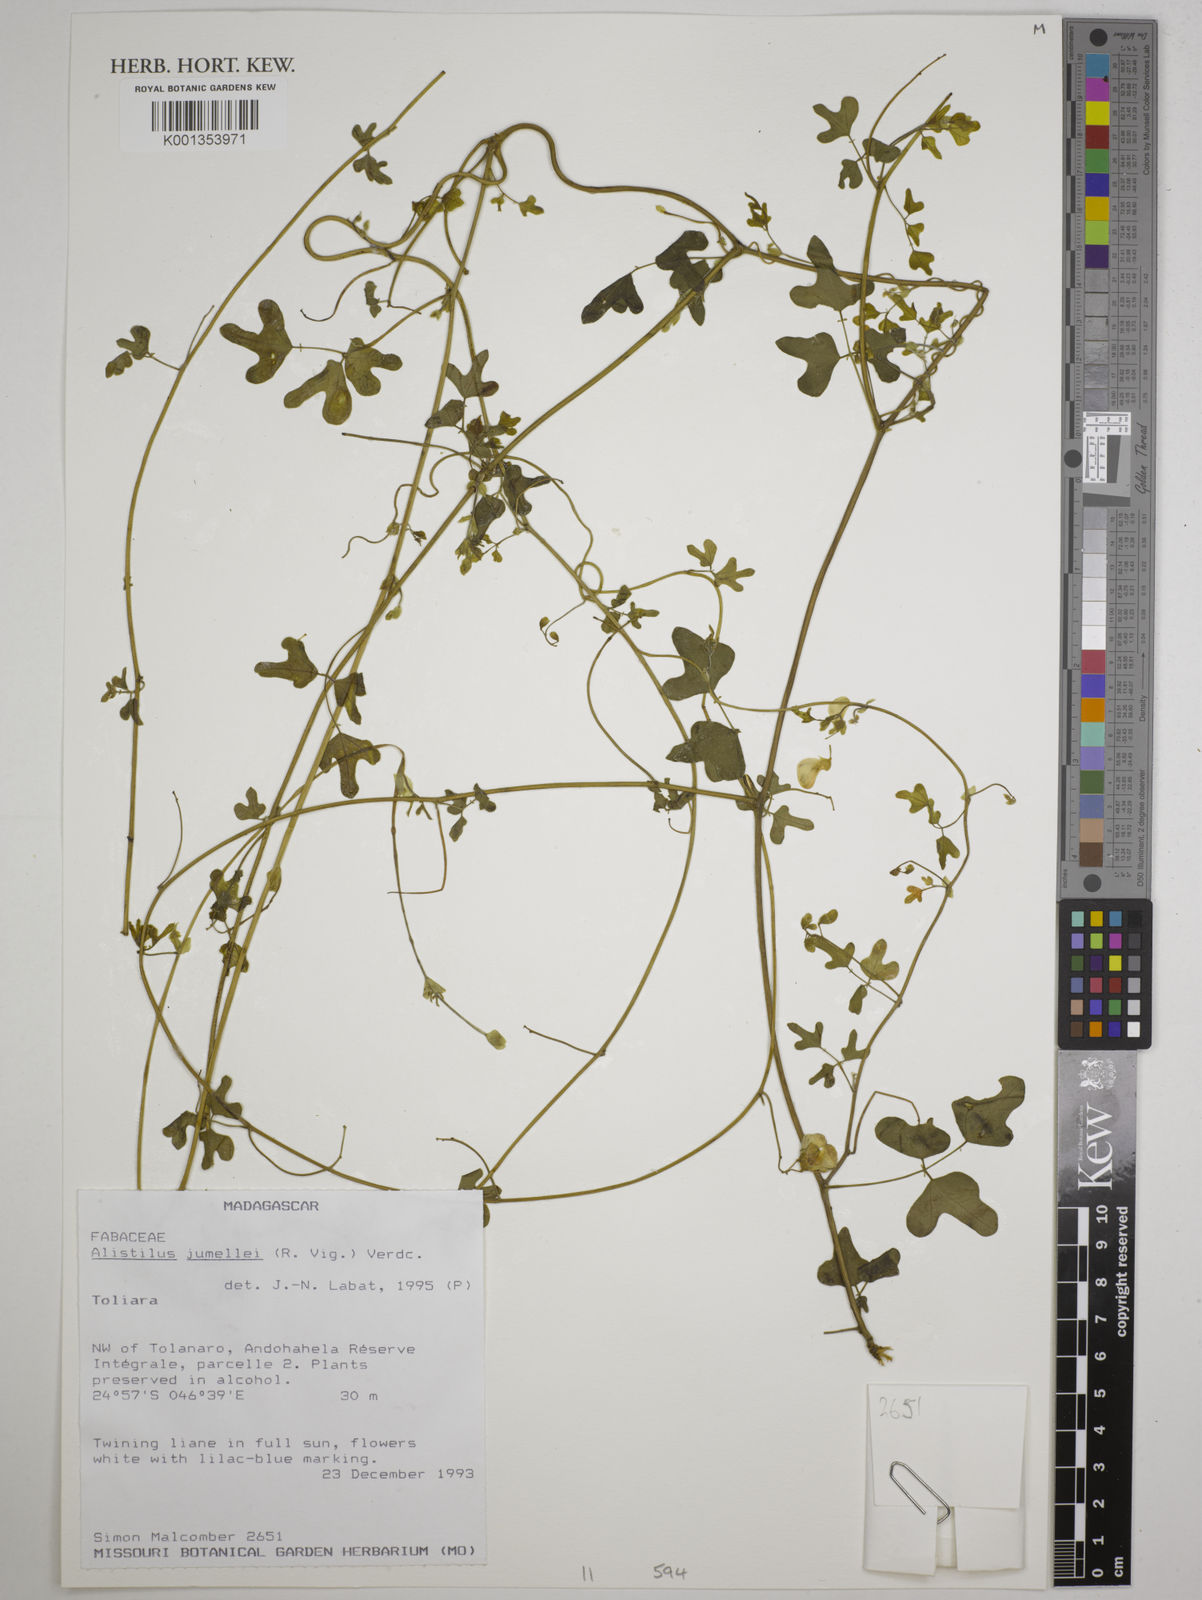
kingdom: Plantae
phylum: Tracheophyta
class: Magnoliopsida
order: Fabales
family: Fabaceae
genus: Alistilus
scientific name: Alistilus jumellei
